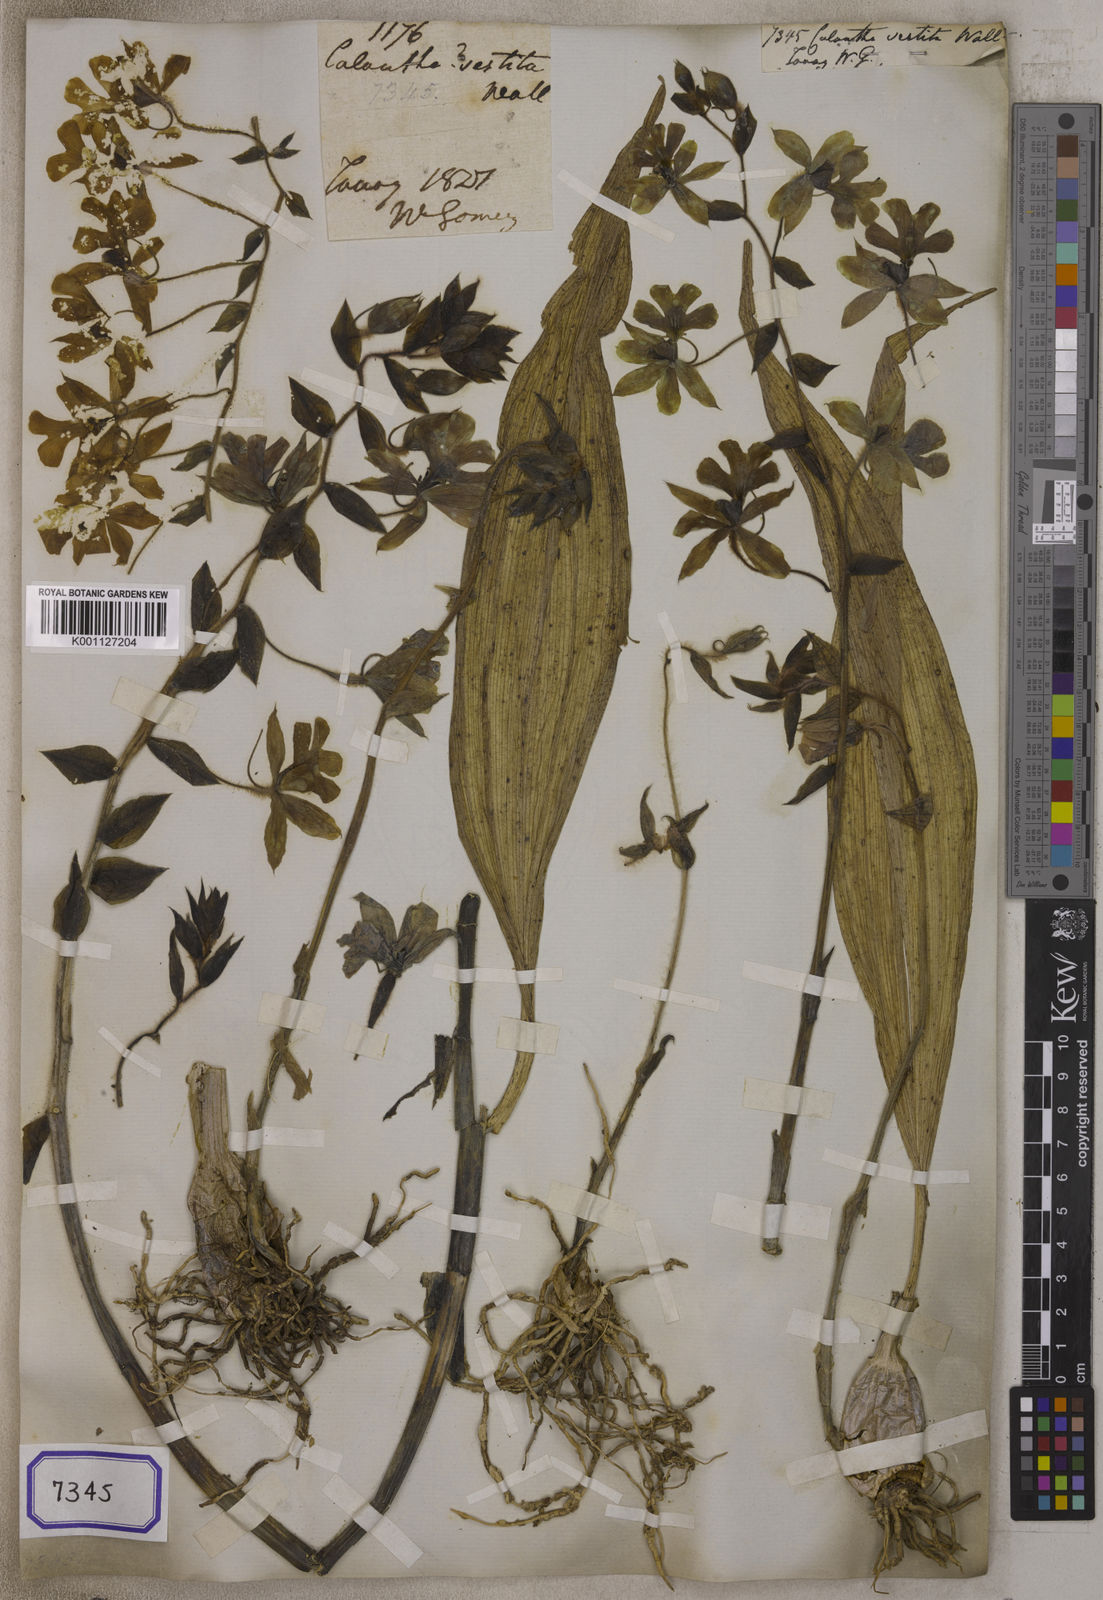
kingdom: Plantae
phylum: Tracheophyta
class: Liliopsida
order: Asparagales
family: Orchidaceae
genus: Calanthe
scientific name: Calanthe vestita
